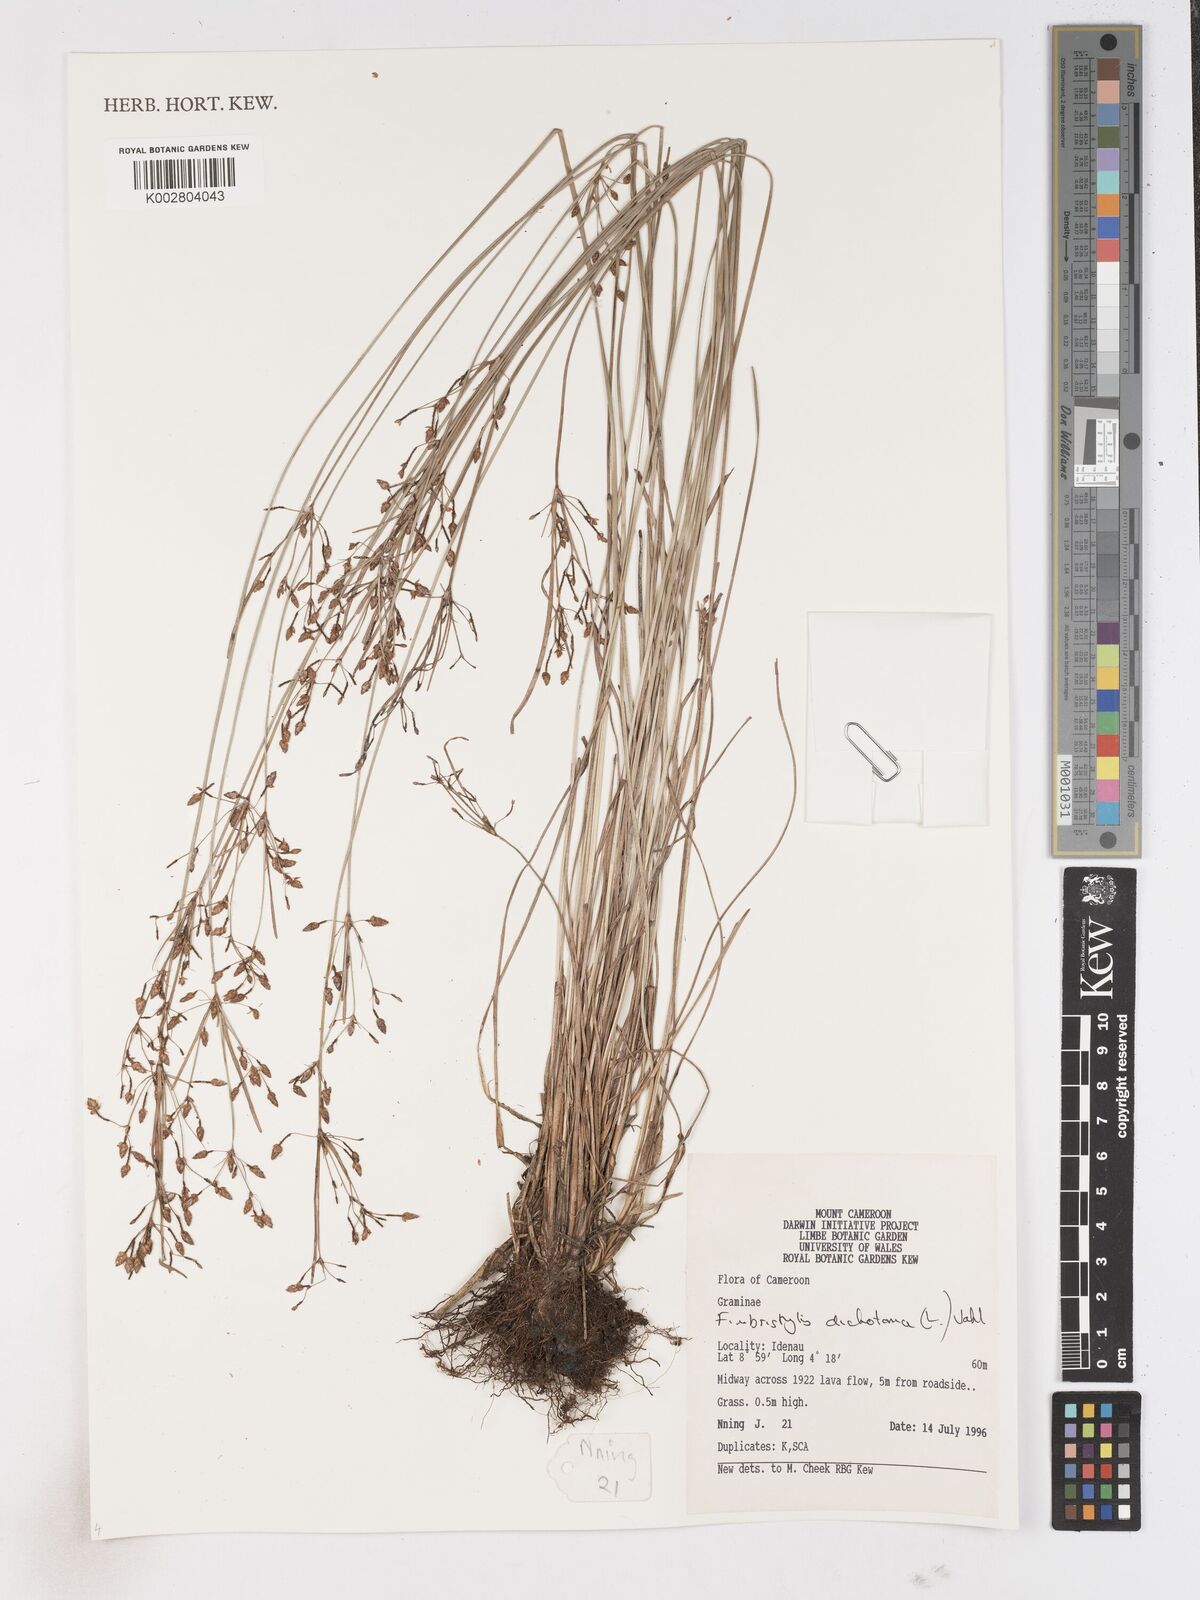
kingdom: Plantae
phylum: Tracheophyta
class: Liliopsida
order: Poales
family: Cyperaceae
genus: Fimbristylis
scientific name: Fimbristylis dichotoma
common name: Forked fimbry
